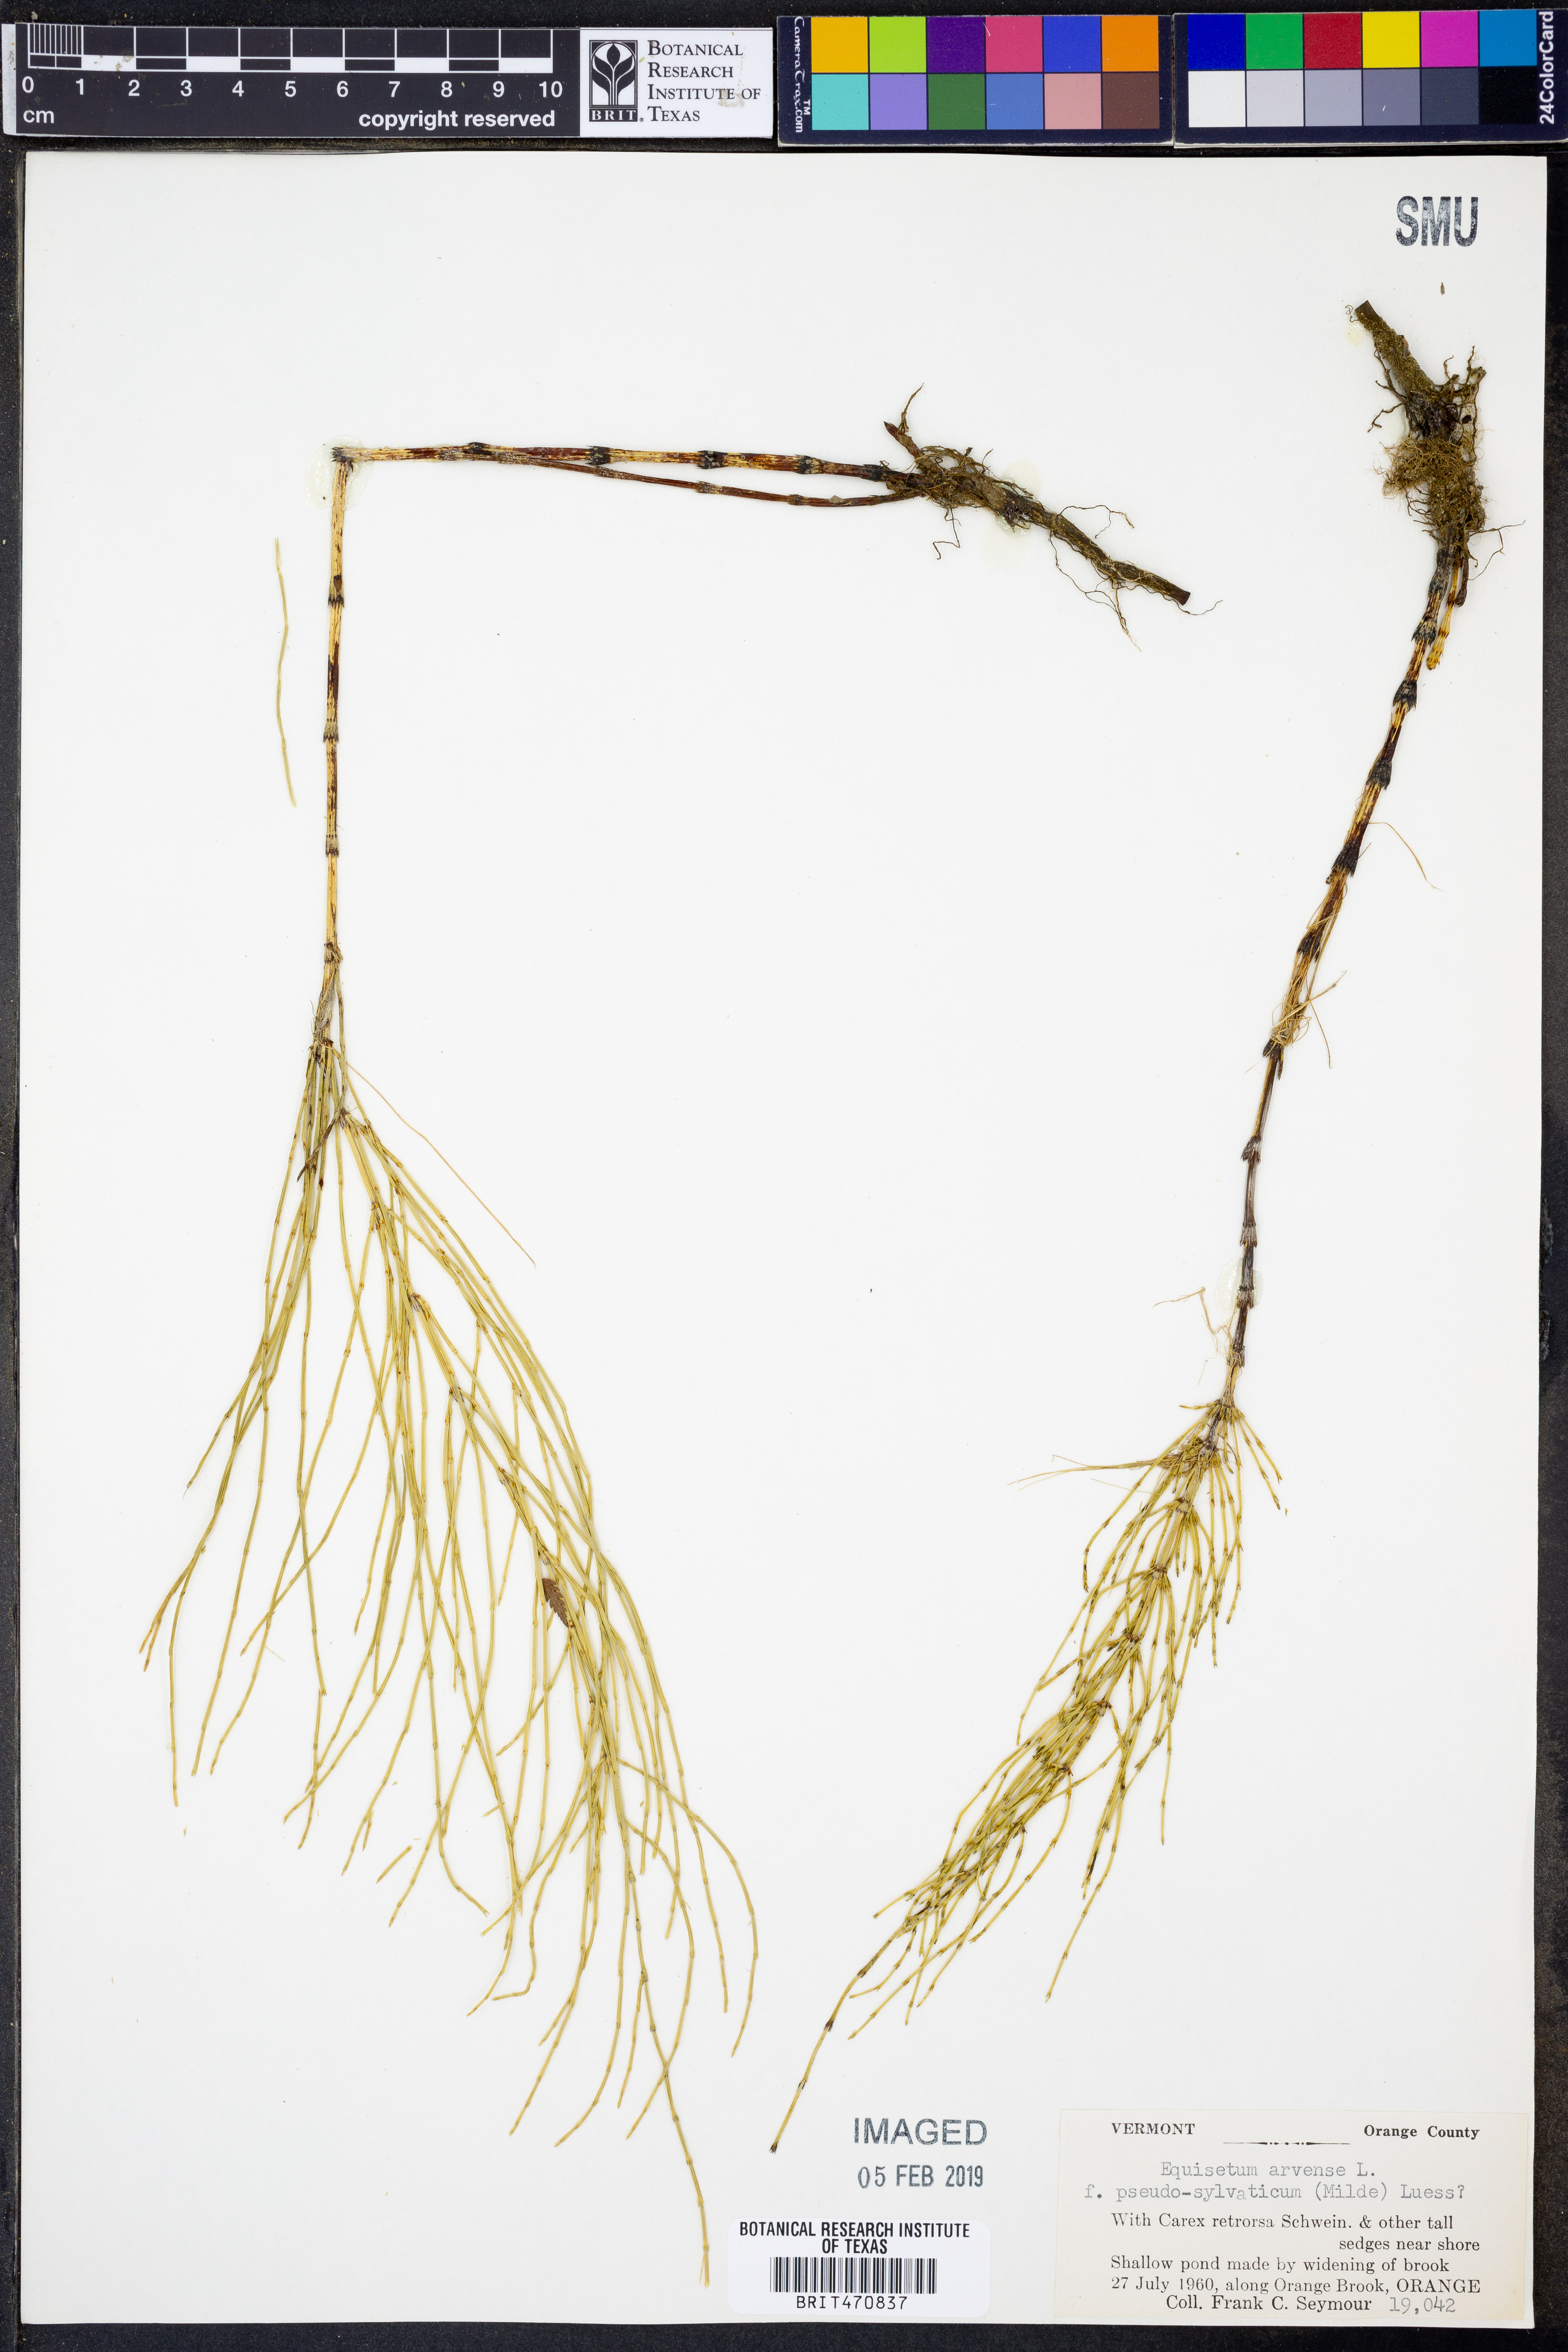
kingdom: Plantae
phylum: Tracheophyta
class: Polypodiopsida
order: Equisetales
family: Equisetaceae
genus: Equisetum
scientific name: Equisetum arvense
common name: Field horsetail
